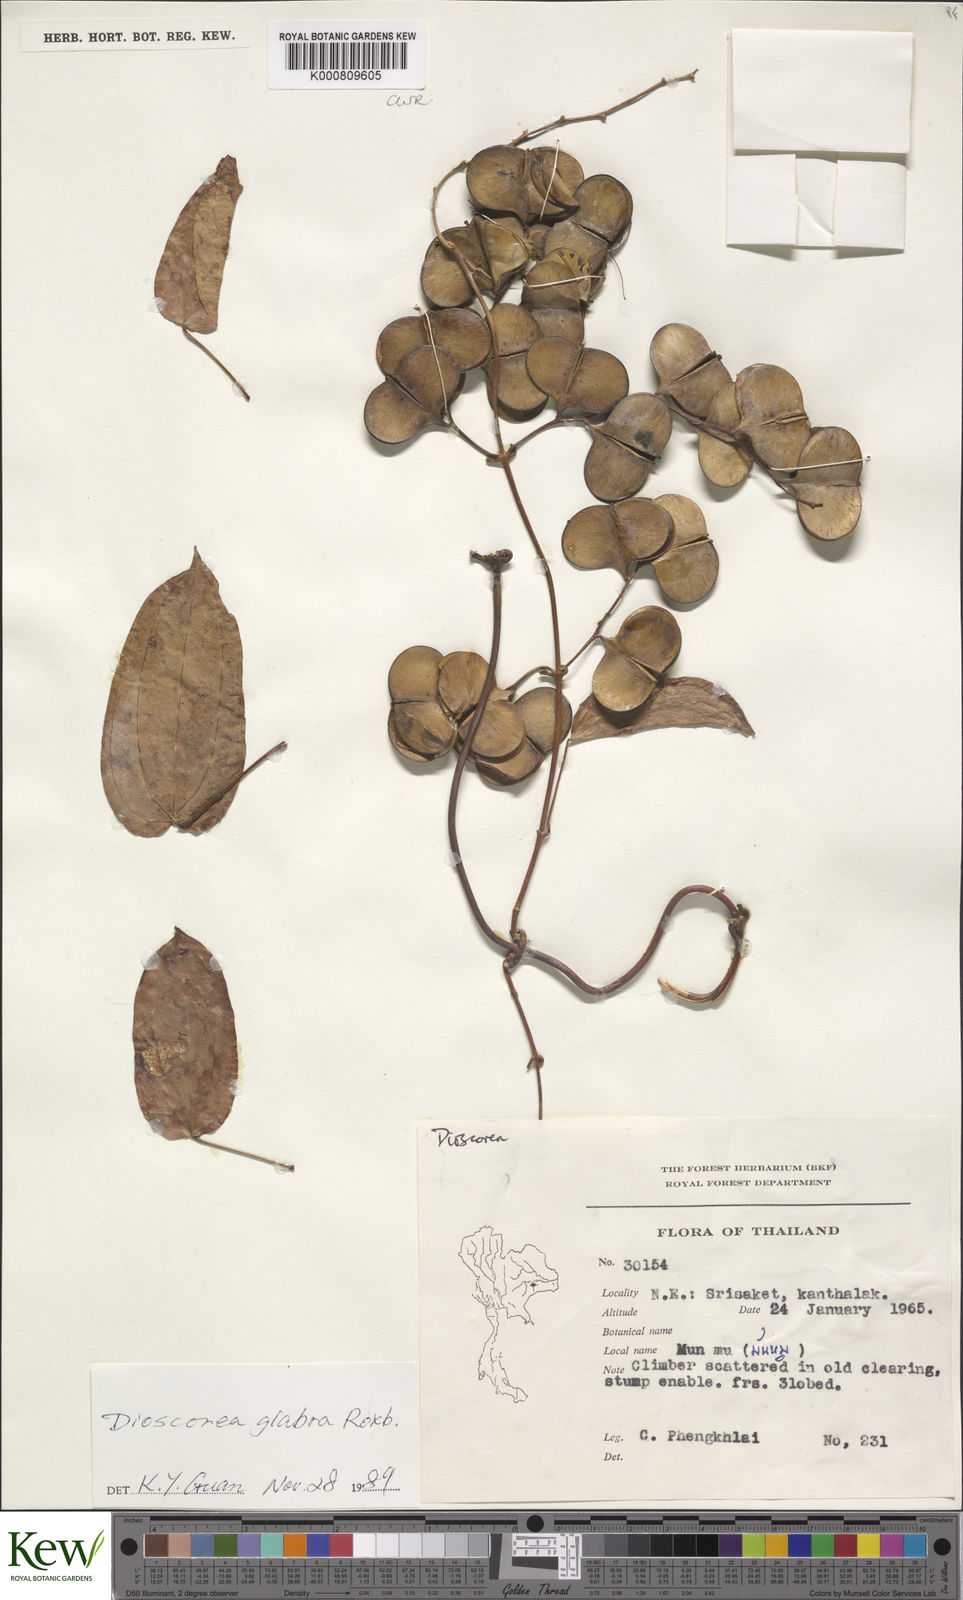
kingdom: Plantae
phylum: Tracheophyta
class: Liliopsida
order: Dioscoreales
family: Dioscoreaceae
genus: Dioscorea
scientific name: Dioscorea glabra
